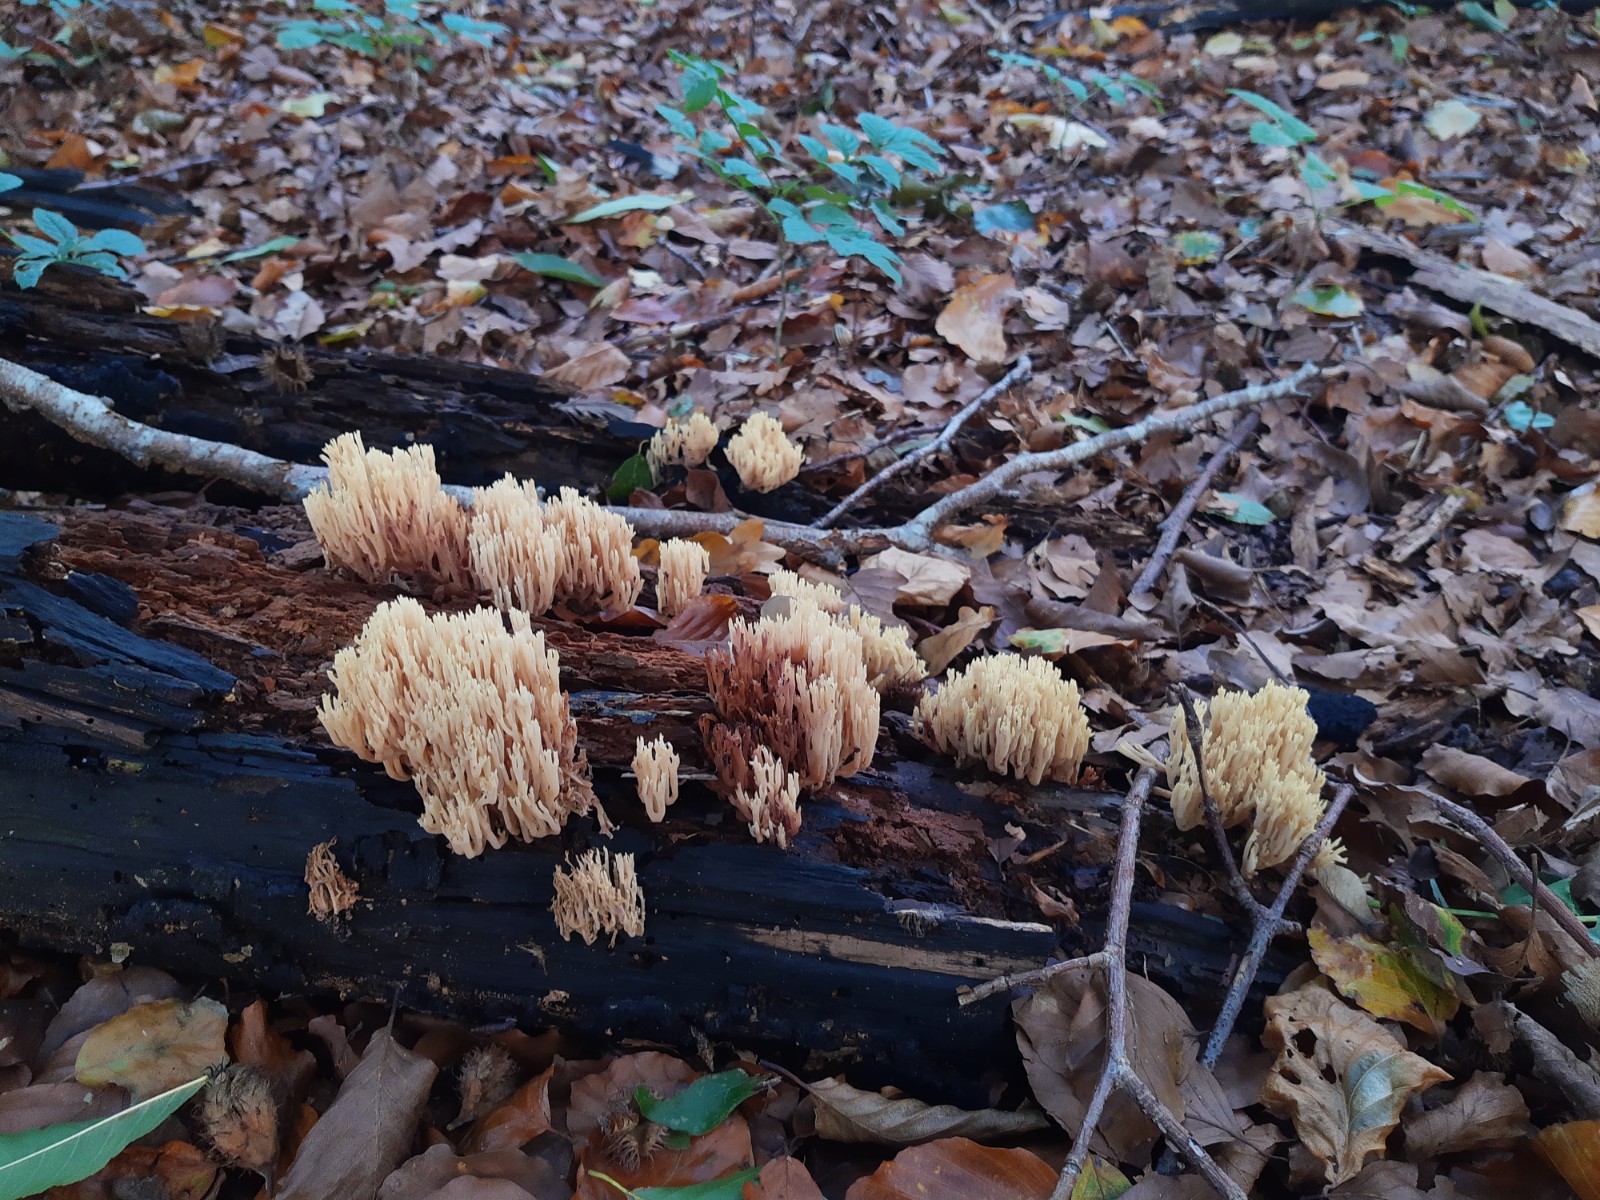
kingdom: Fungi
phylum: Basidiomycota
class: Agaricomycetes
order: Gomphales
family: Gomphaceae
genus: Ramaria
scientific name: Ramaria stricta
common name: rank koralsvamp
